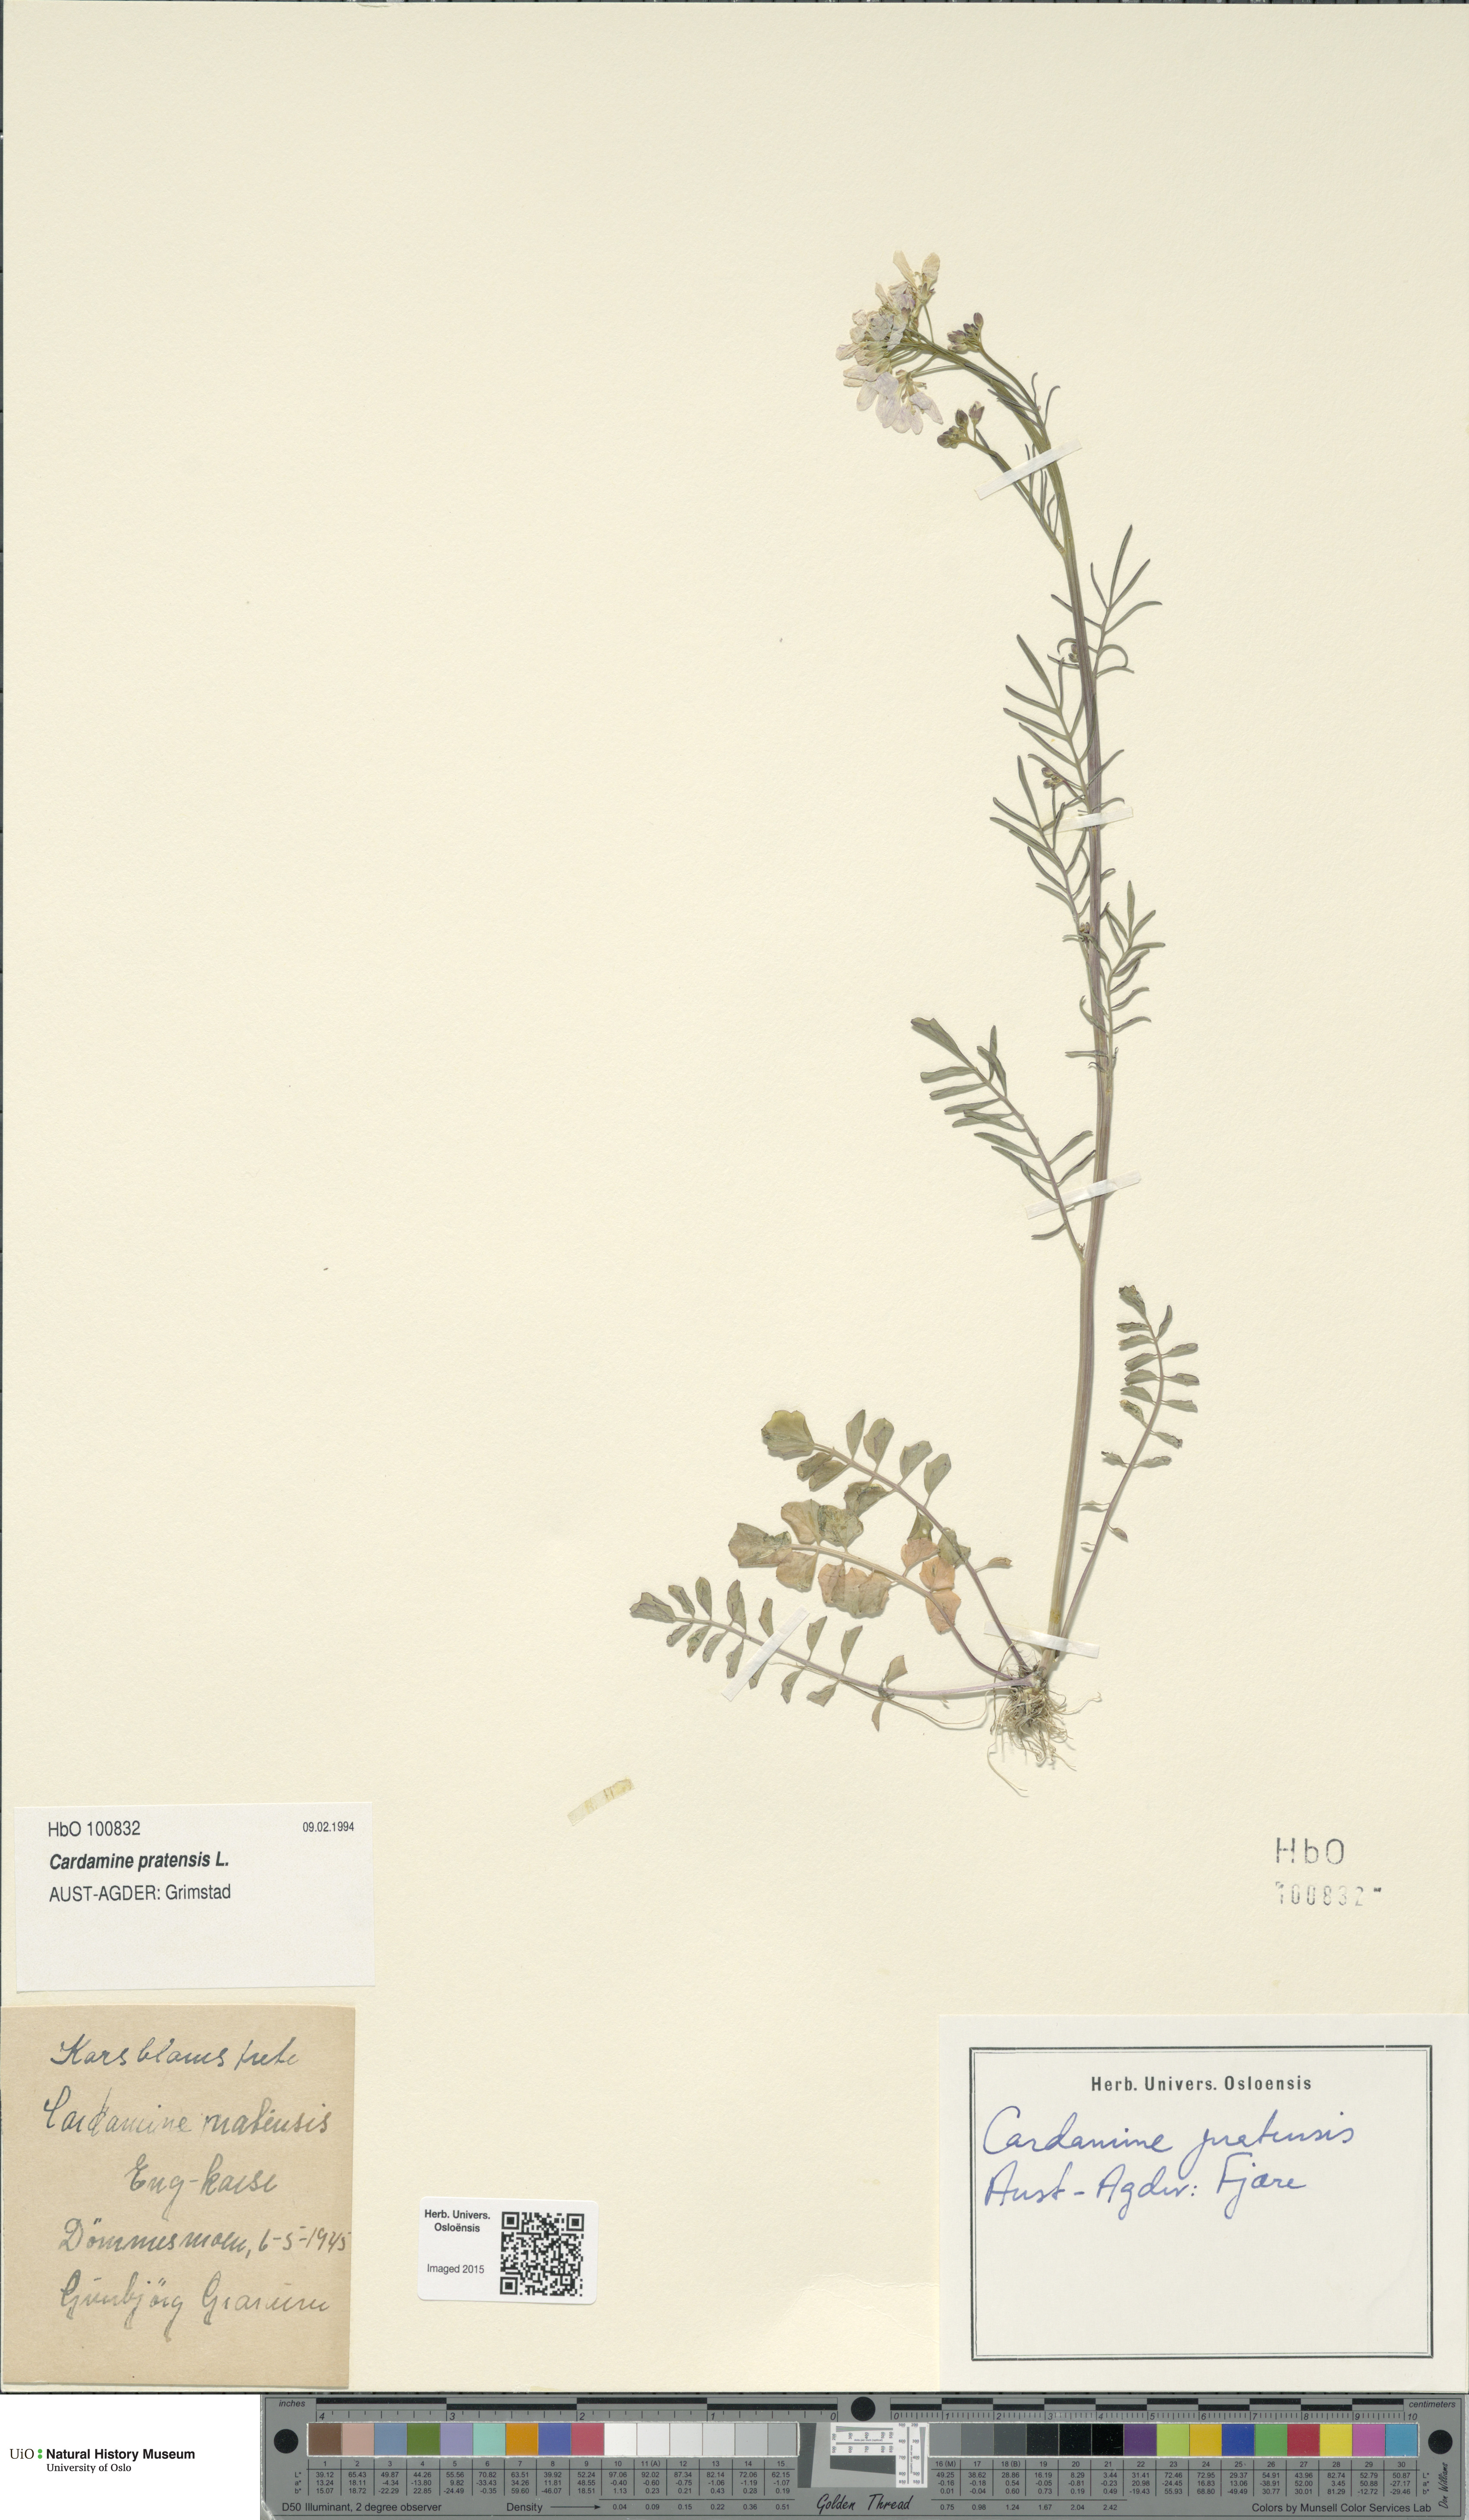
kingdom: Plantae
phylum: Tracheophyta
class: Magnoliopsida
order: Brassicales
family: Brassicaceae
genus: Cardamine
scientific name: Cardamine pratensis
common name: Cuckoo flower
